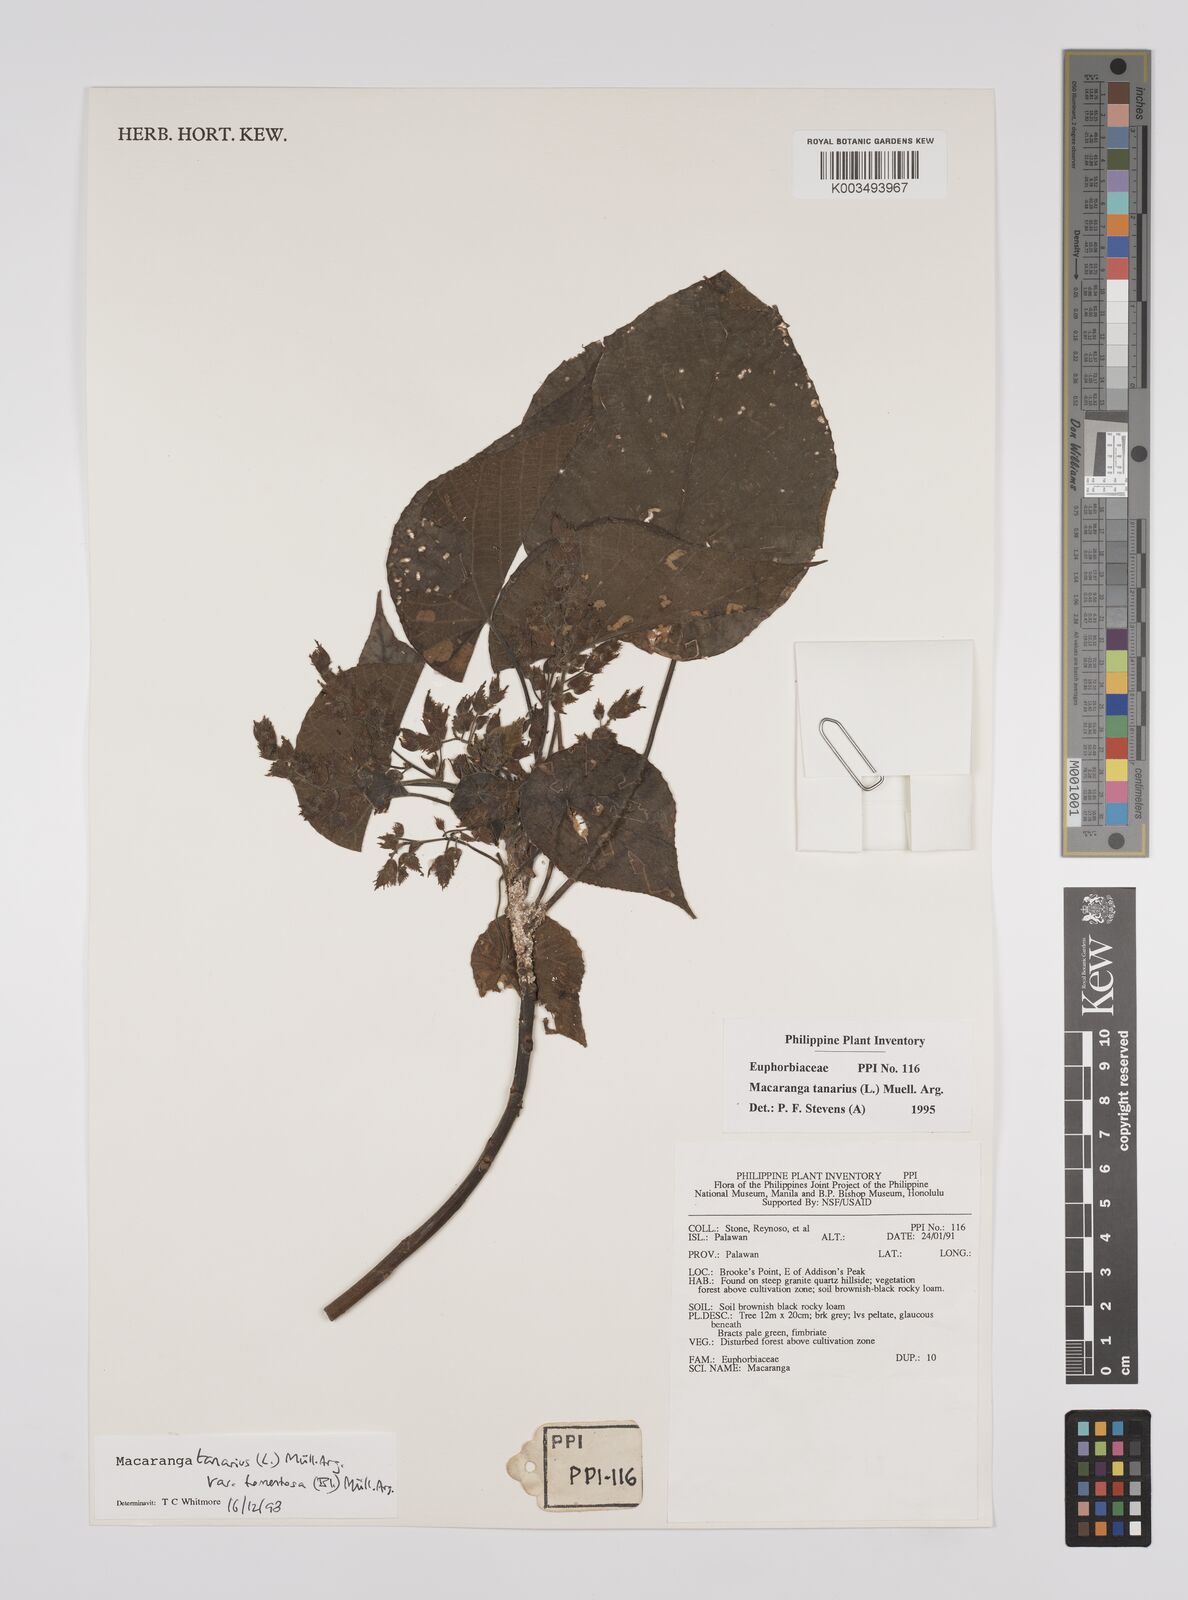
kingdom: Plantae
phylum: Tracheophyta
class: Magnoliopsida
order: Malpighiales
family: Euphorbiaceae
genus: Macaranga
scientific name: Macaranga tanarius
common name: Parasol leaf tree
